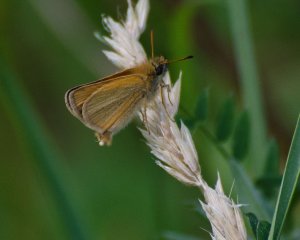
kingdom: Animalia
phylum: Arthropoda
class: Insecta
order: Lepidoptera
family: Hesperiidae
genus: Thymelicus
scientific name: Thymelicus lineola
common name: European Skipper
